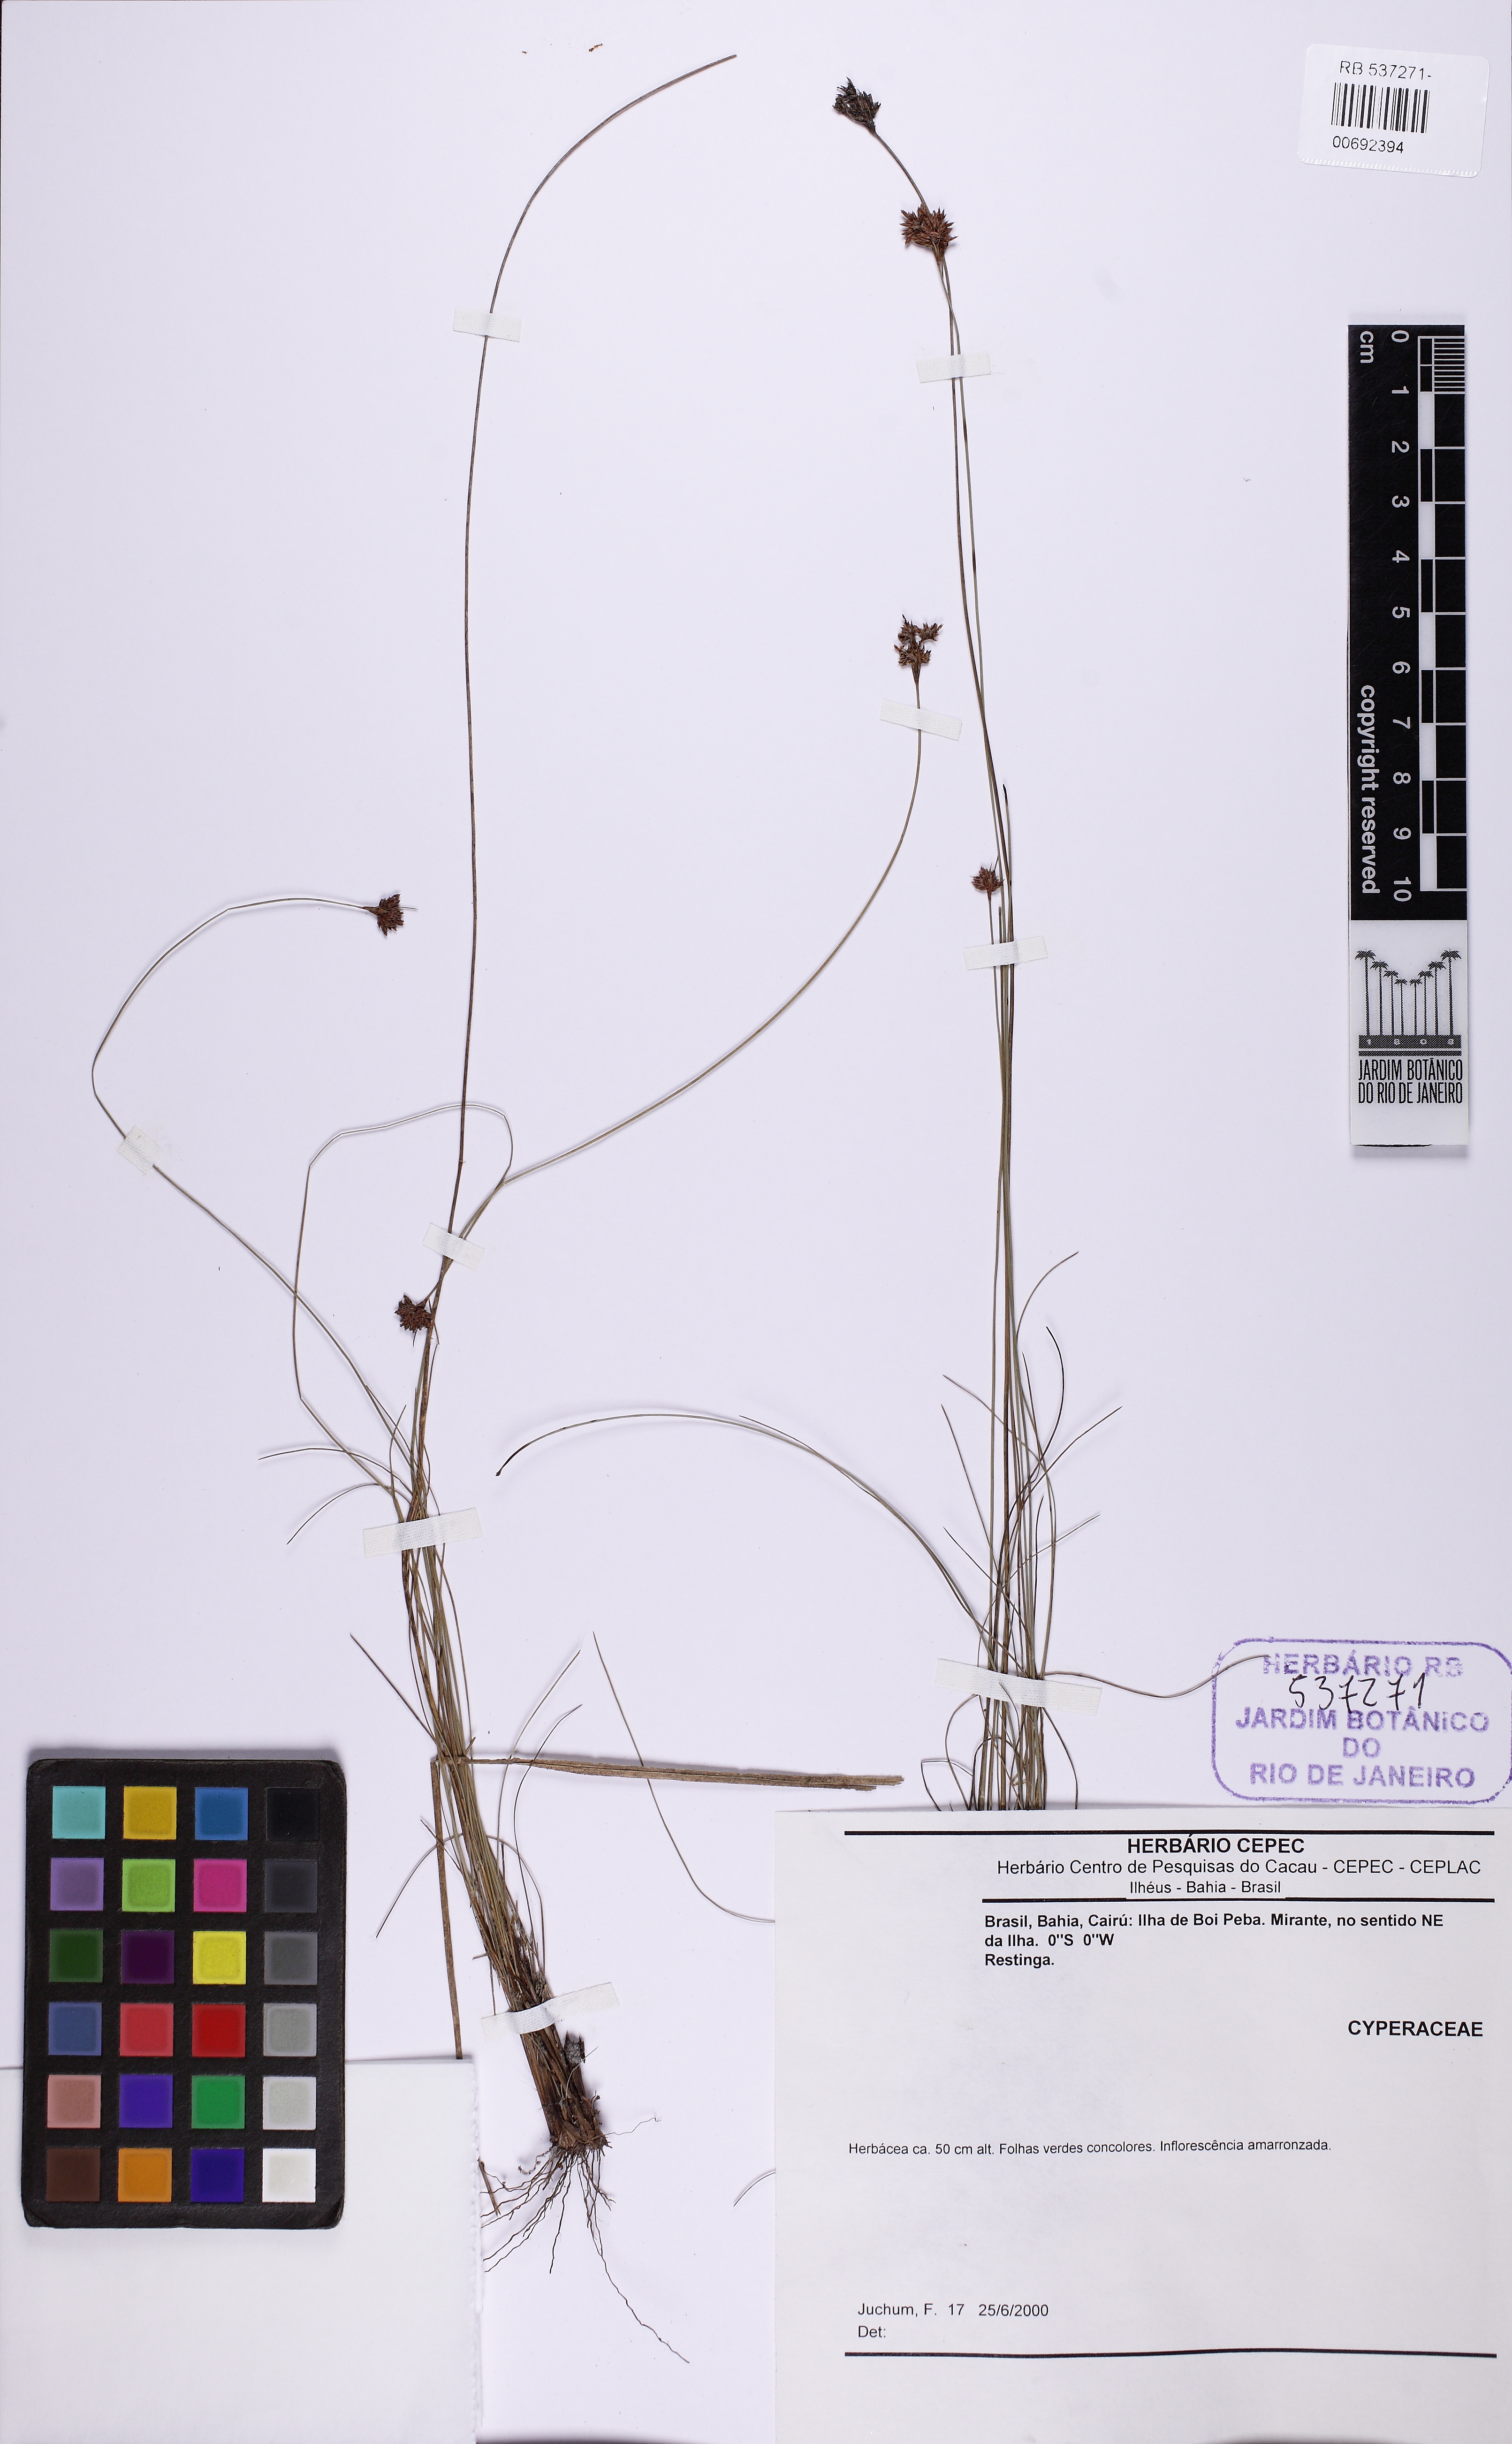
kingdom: Plantae
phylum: Tracheophyta
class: Liliopsida
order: Poales
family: Cyperaceae
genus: Bulbostylis
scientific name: Bulbostylis junciformis
